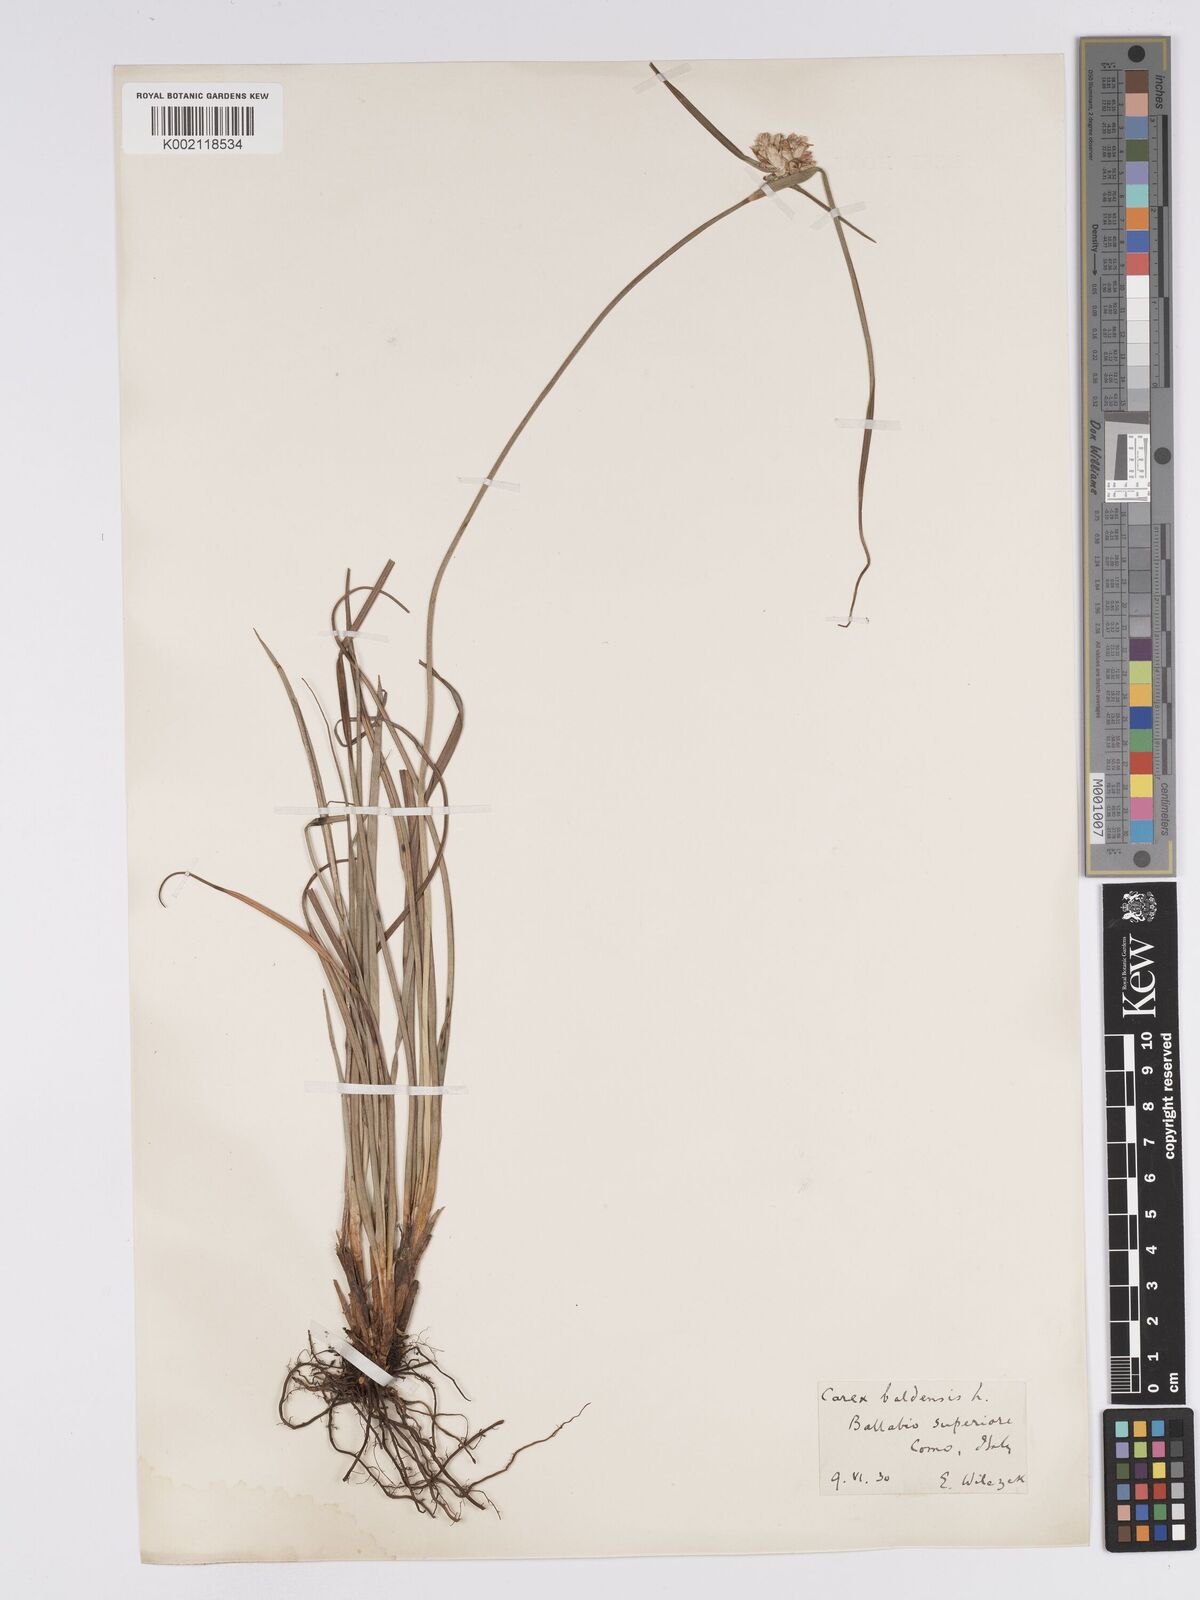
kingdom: Plantae
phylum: Tracheophyta
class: Liliopsida
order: Poales
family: Cyperaceae
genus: Carex
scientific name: Carex baldensis
